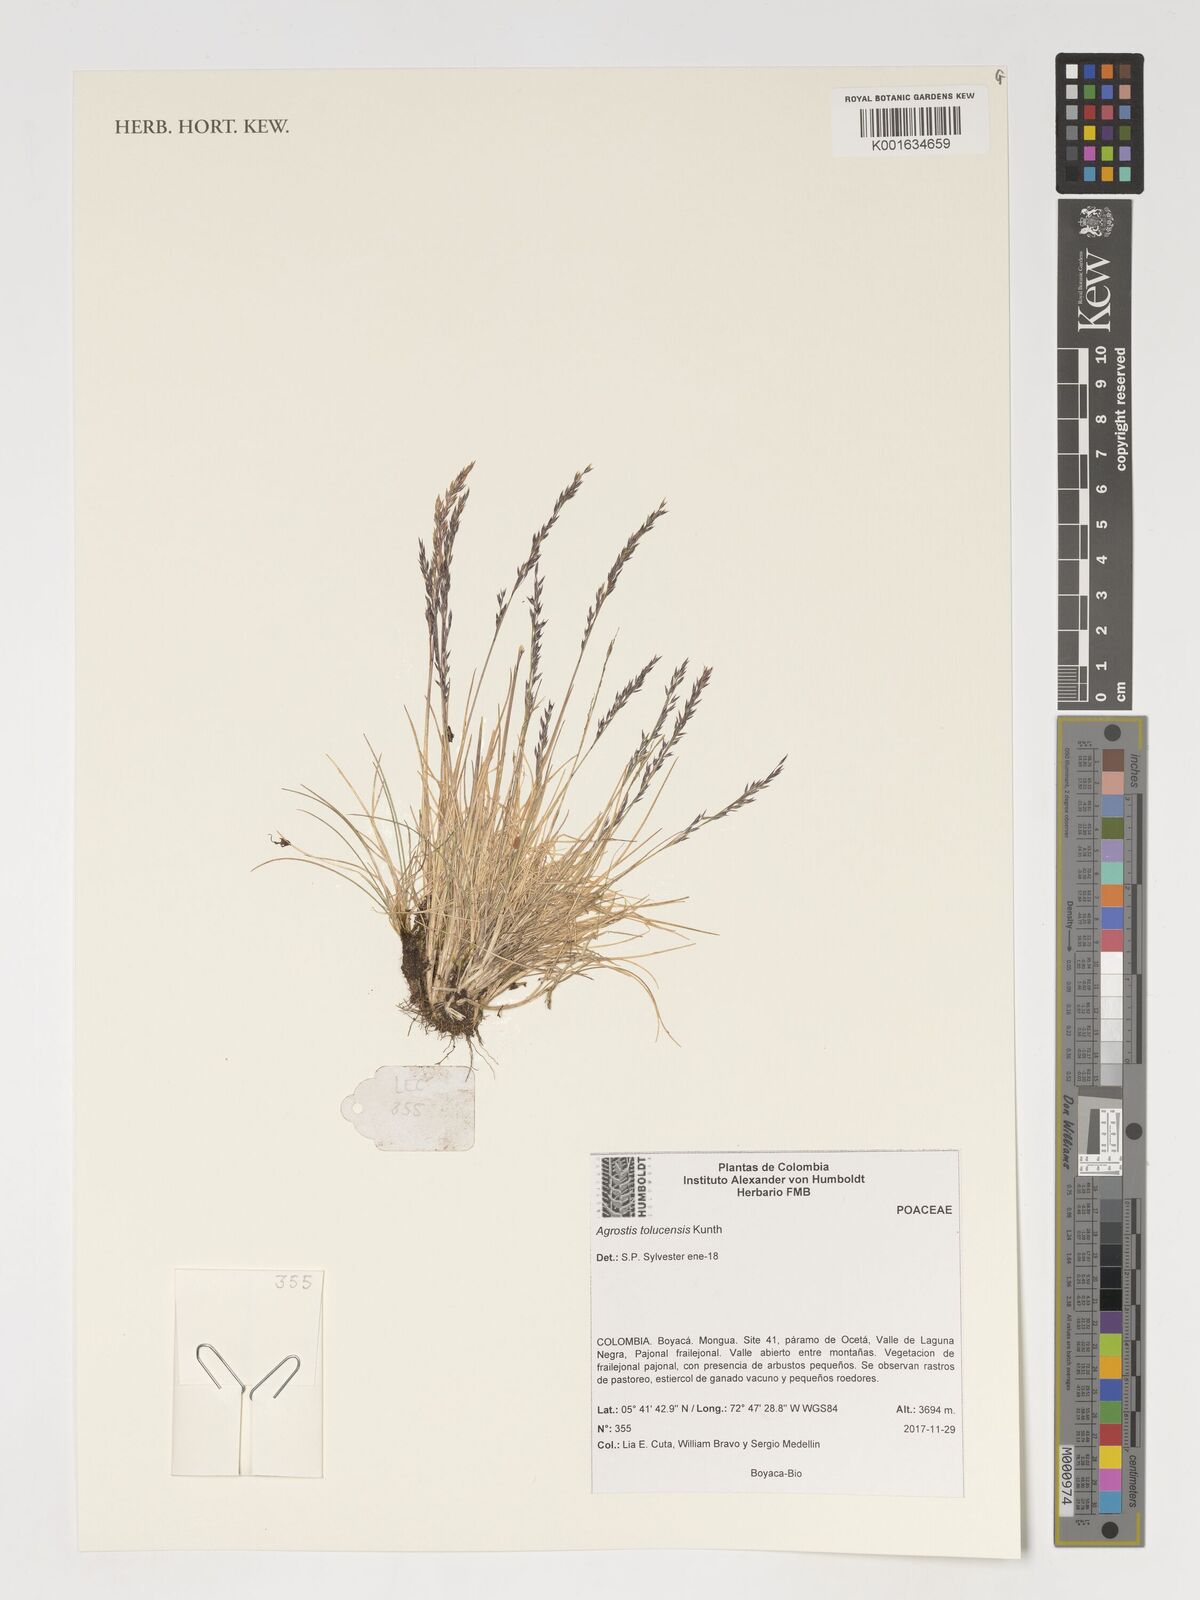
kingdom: Plantae
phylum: Tracheophyta
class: Liliopsida
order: Poales
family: Poaceae
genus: Agrostis
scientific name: Agrostis tolucensis
